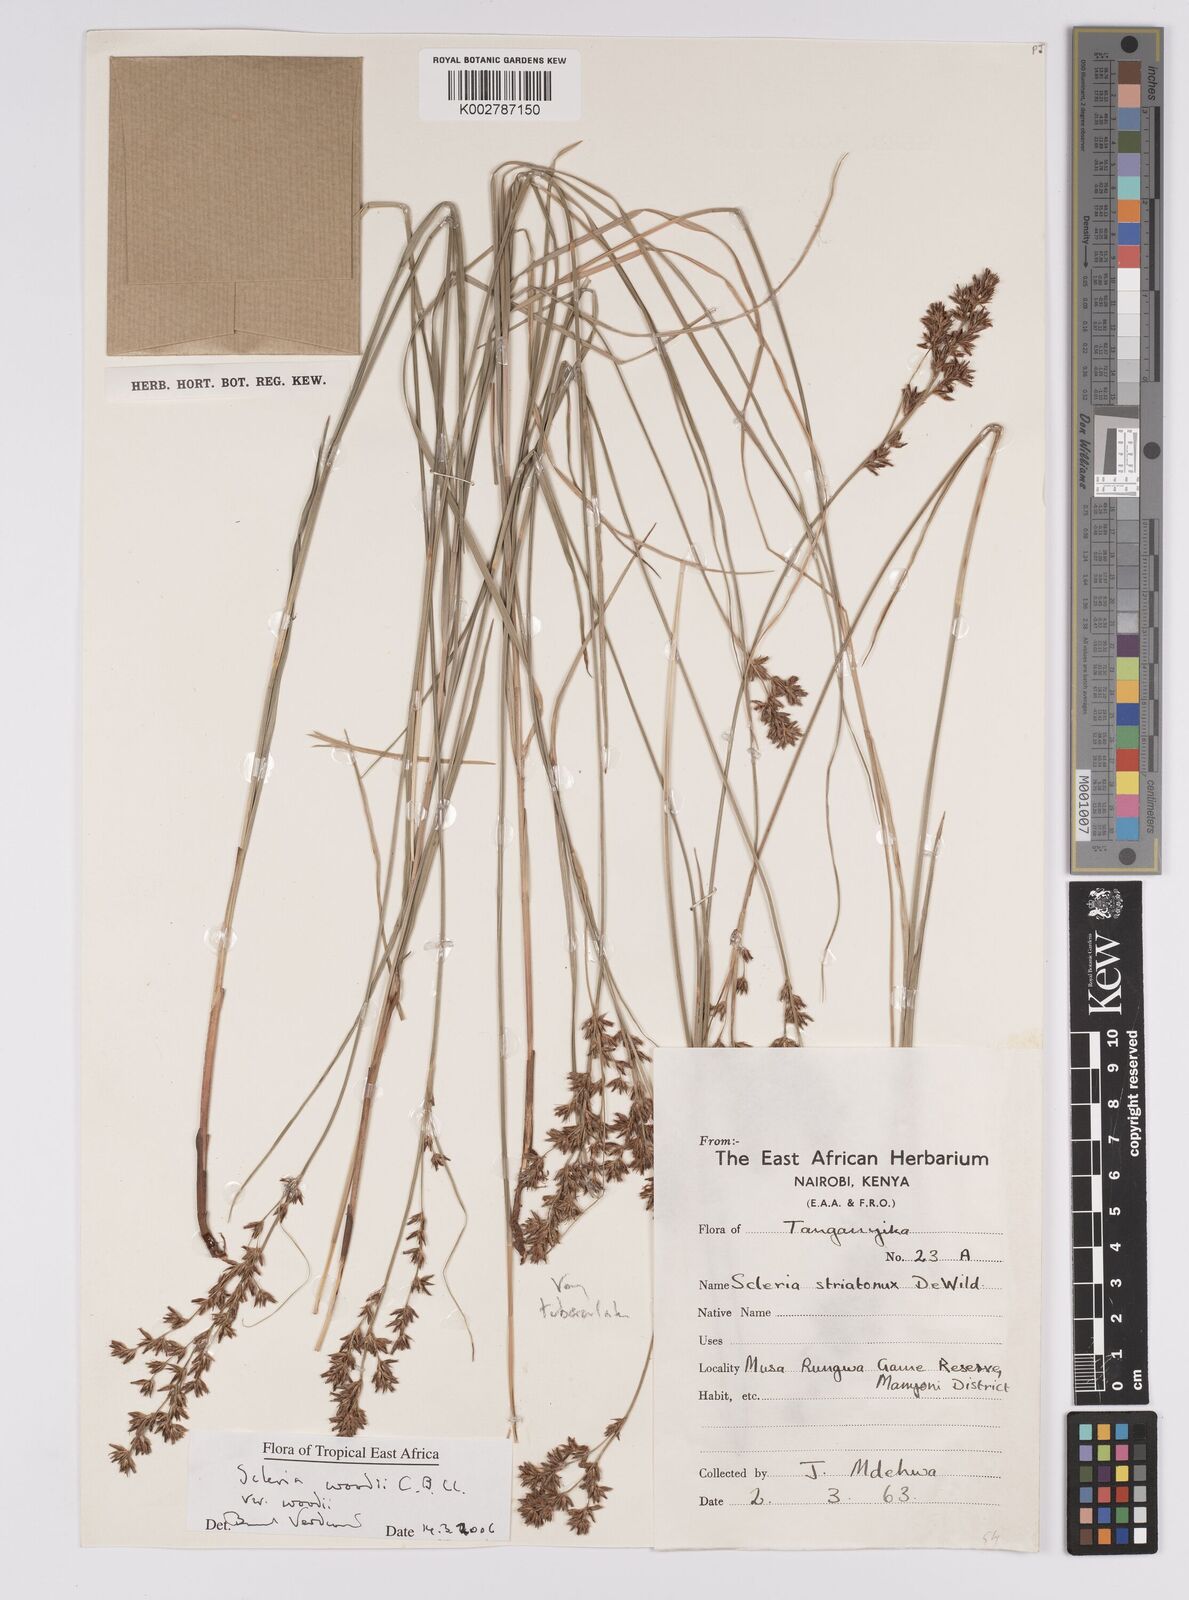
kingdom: Plantae
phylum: Tracheophyta
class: Liliopsida
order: Poales
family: Cyperaceae
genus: Scleria
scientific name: Scleria woodii
